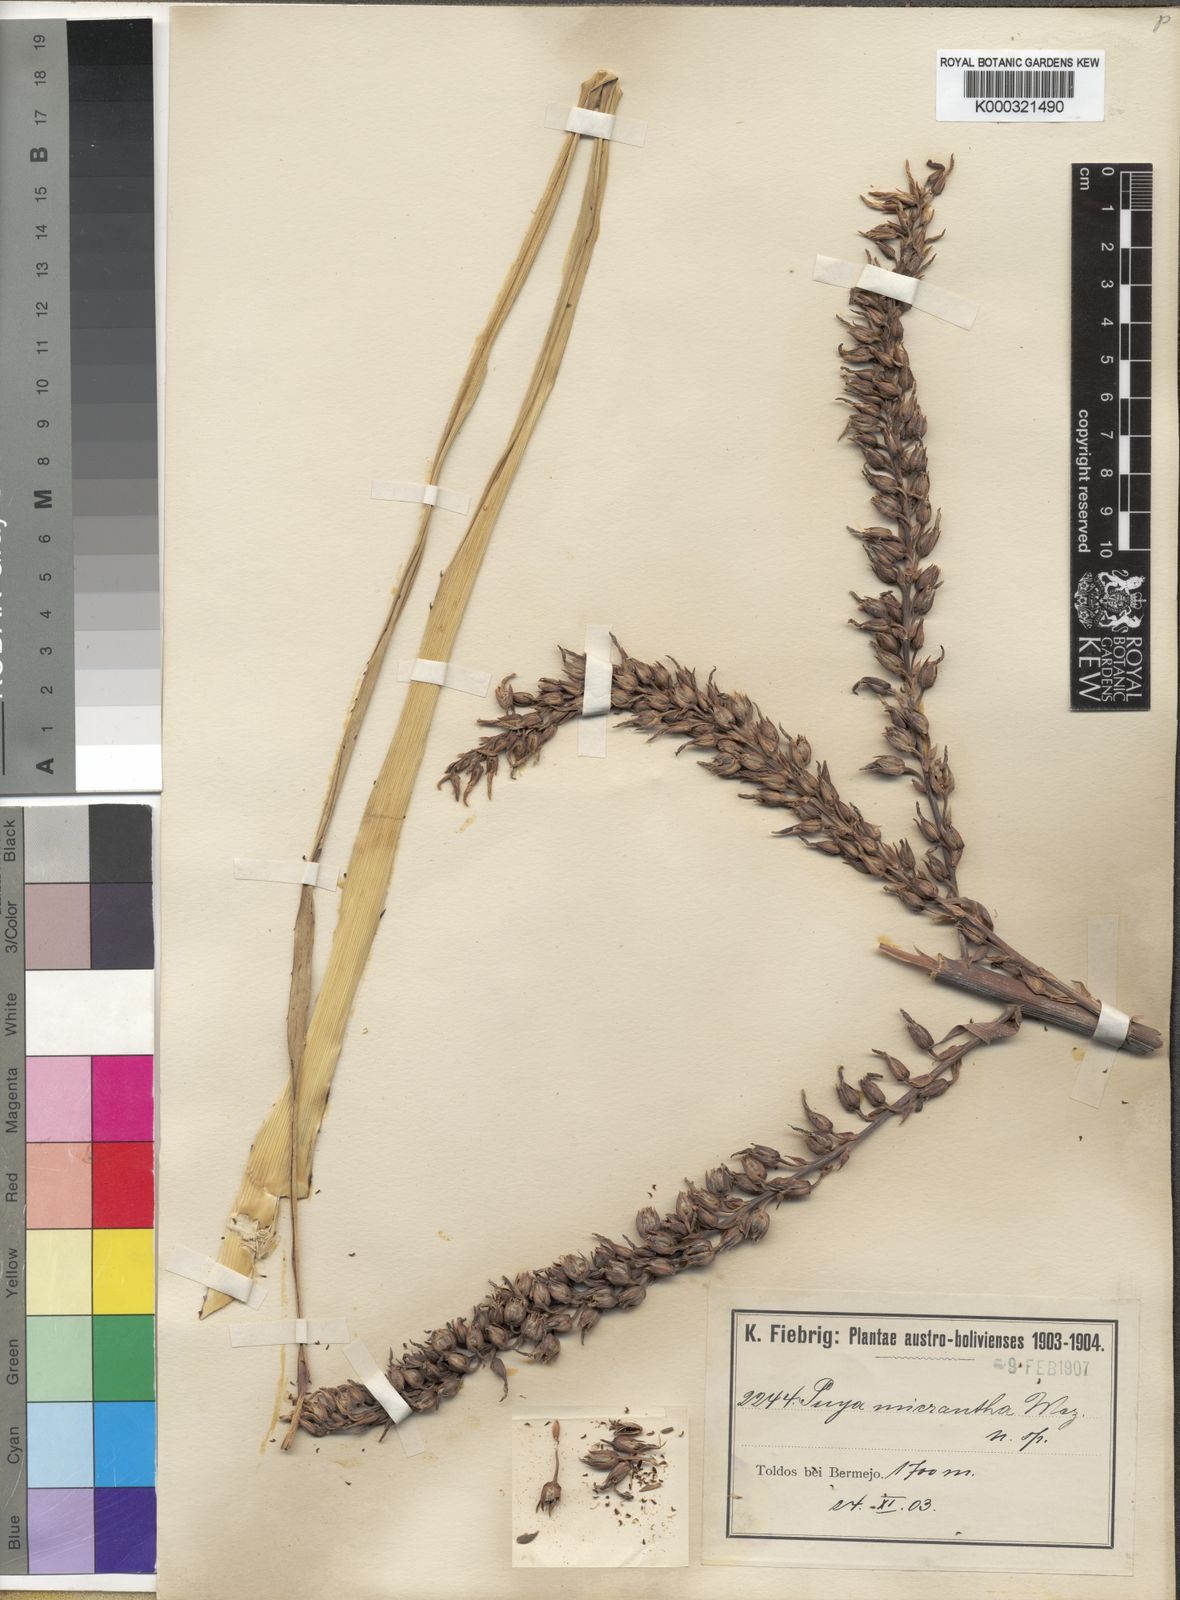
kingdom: Plantae
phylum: Tracheophyta
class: Liliopsida
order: Poales
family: Bromeliaceae
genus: Puya
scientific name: Puya micrantha
